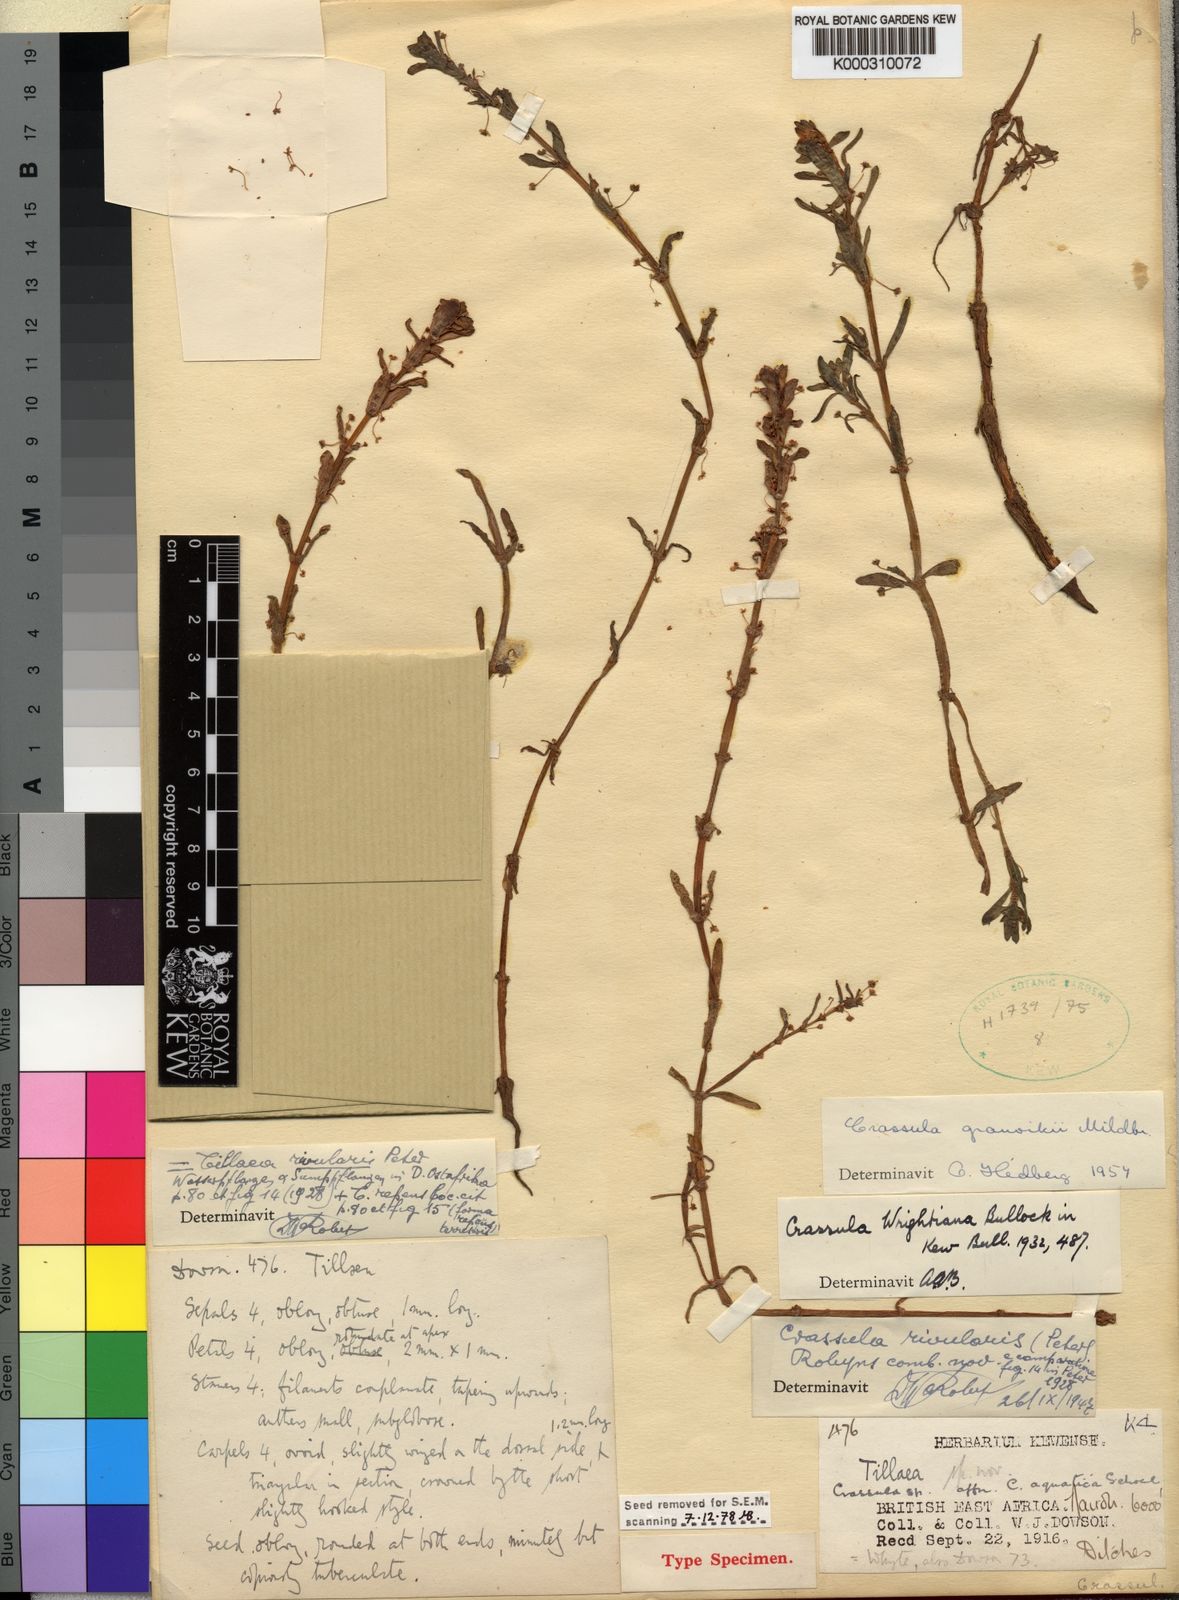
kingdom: Plantae
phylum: Tracheophyta
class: Magnoliopsida
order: Saxifragales
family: Crassulaceae
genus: Crassula
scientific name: Crassula granvikii
